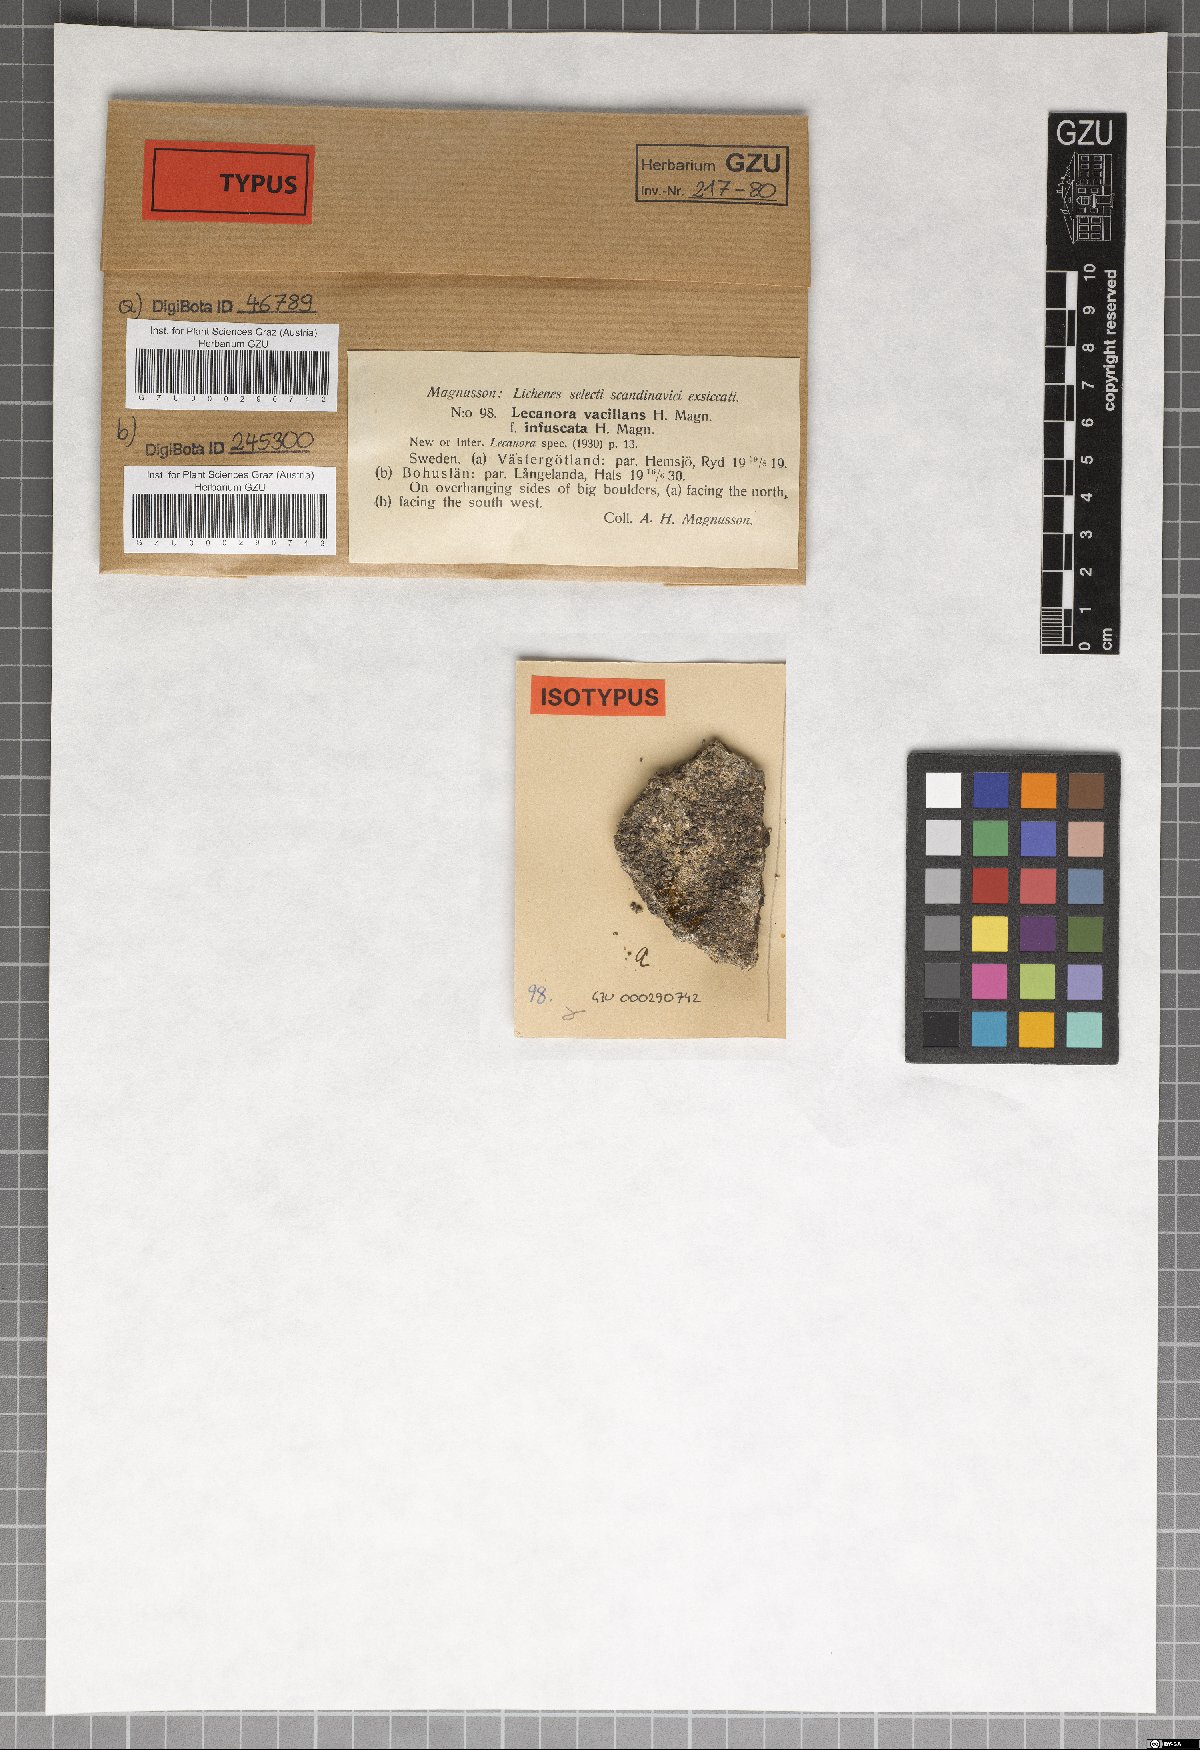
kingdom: Fungi
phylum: Ascomycota
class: Lecanoromycetes
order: Lecanorales
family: Lecanoraceae
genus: Lecanora
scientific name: Lecanora vacillans
